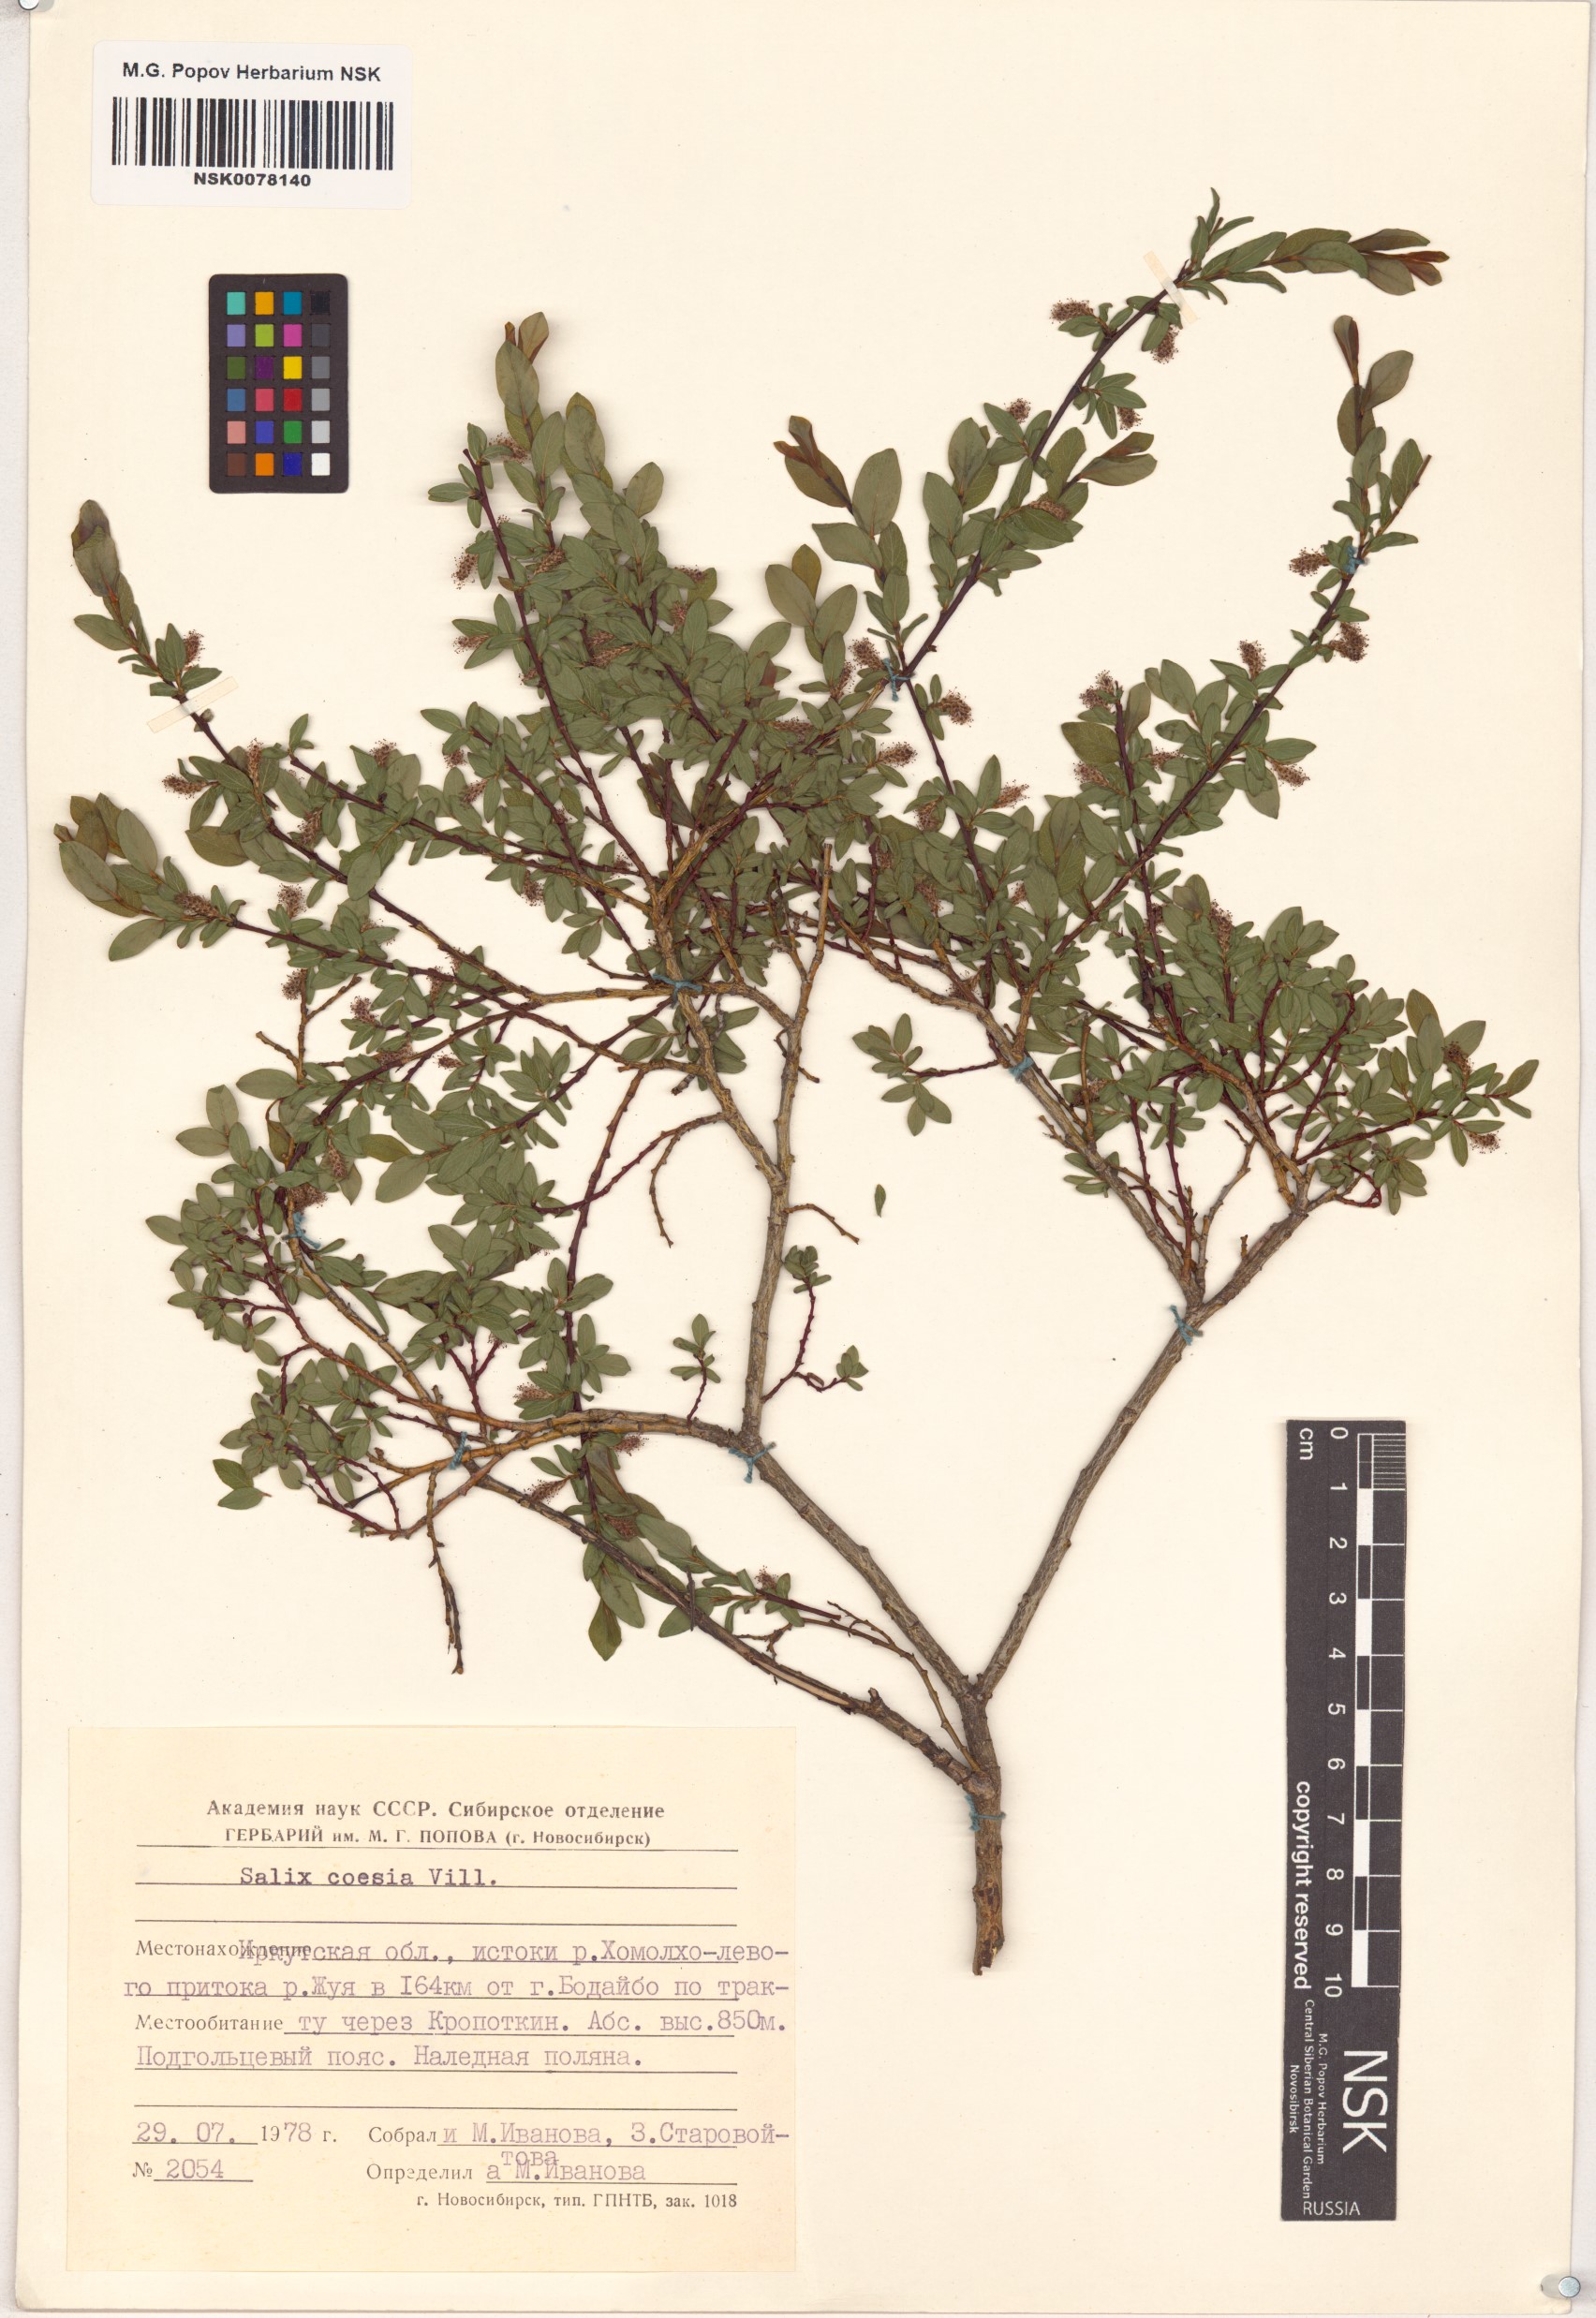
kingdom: Plantae
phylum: Tracheophyta
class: Magnoliopsida
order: Malpighiales
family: Salicaceae
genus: Salix
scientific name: Salix caesia
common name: Blue willow
